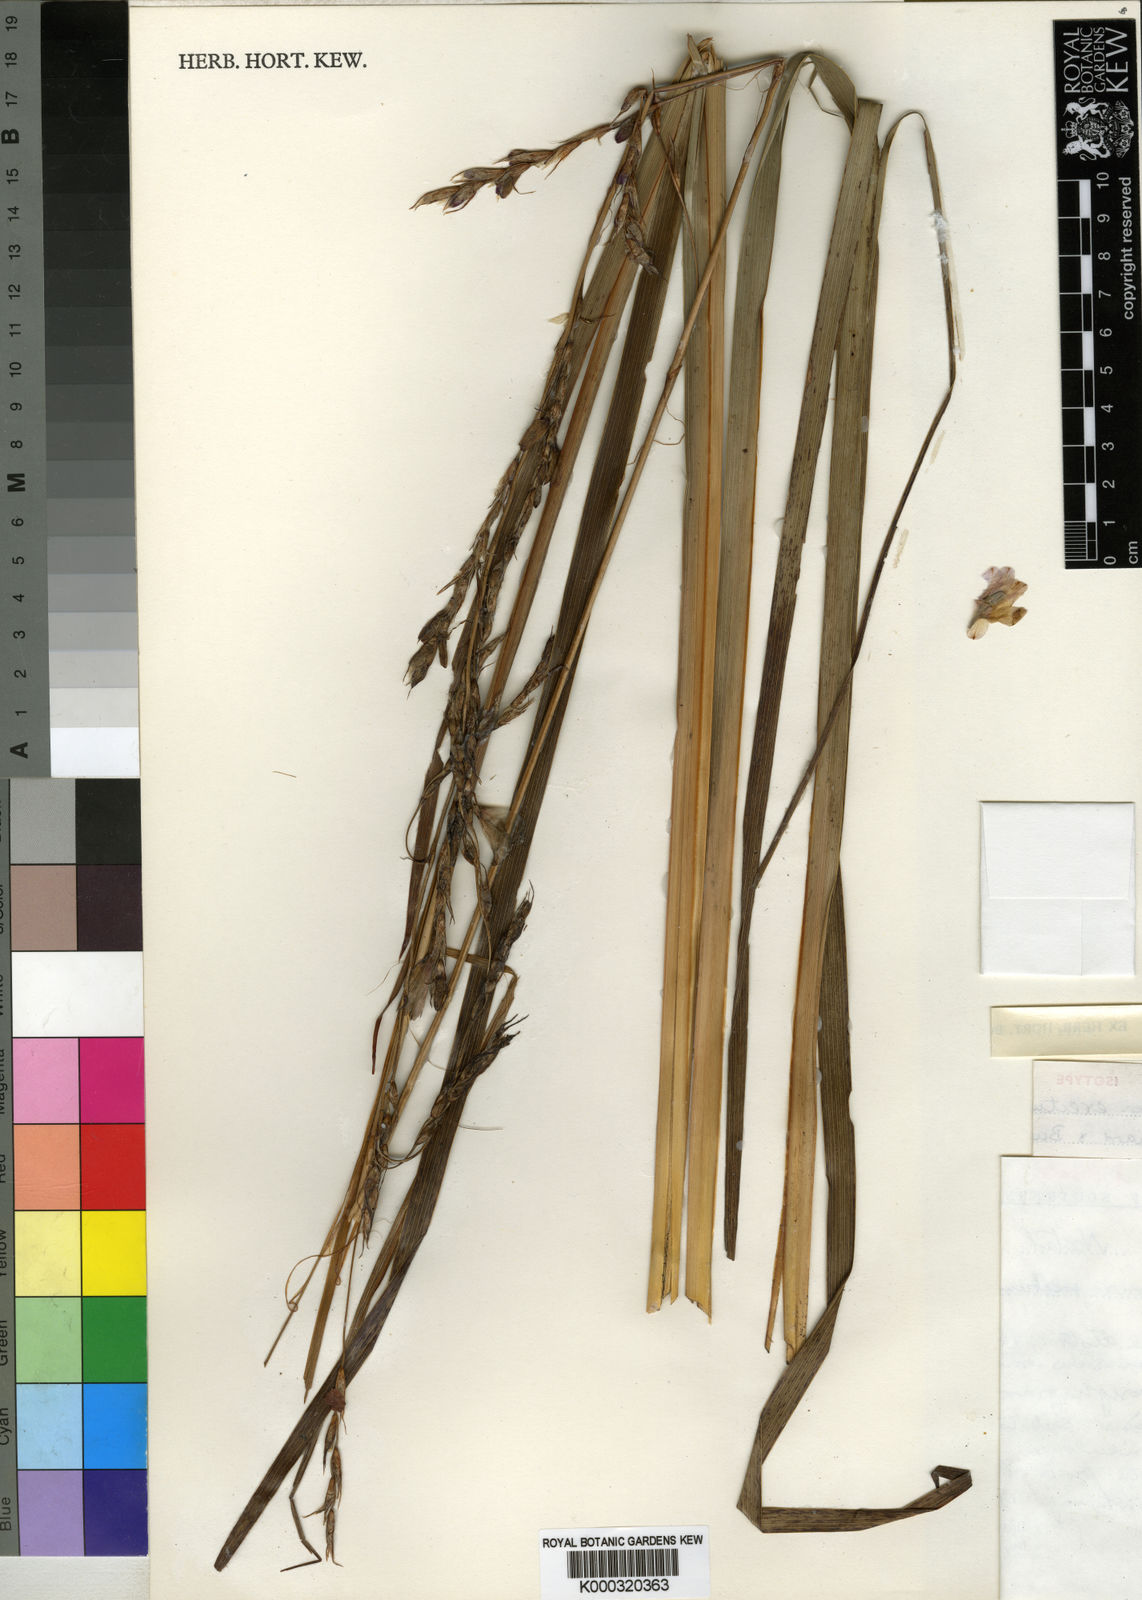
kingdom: Plantae
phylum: Tracheophyta
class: Liliopsida
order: Asparagales
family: Iridaceae
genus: Dierama
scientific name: Dierama erectum
